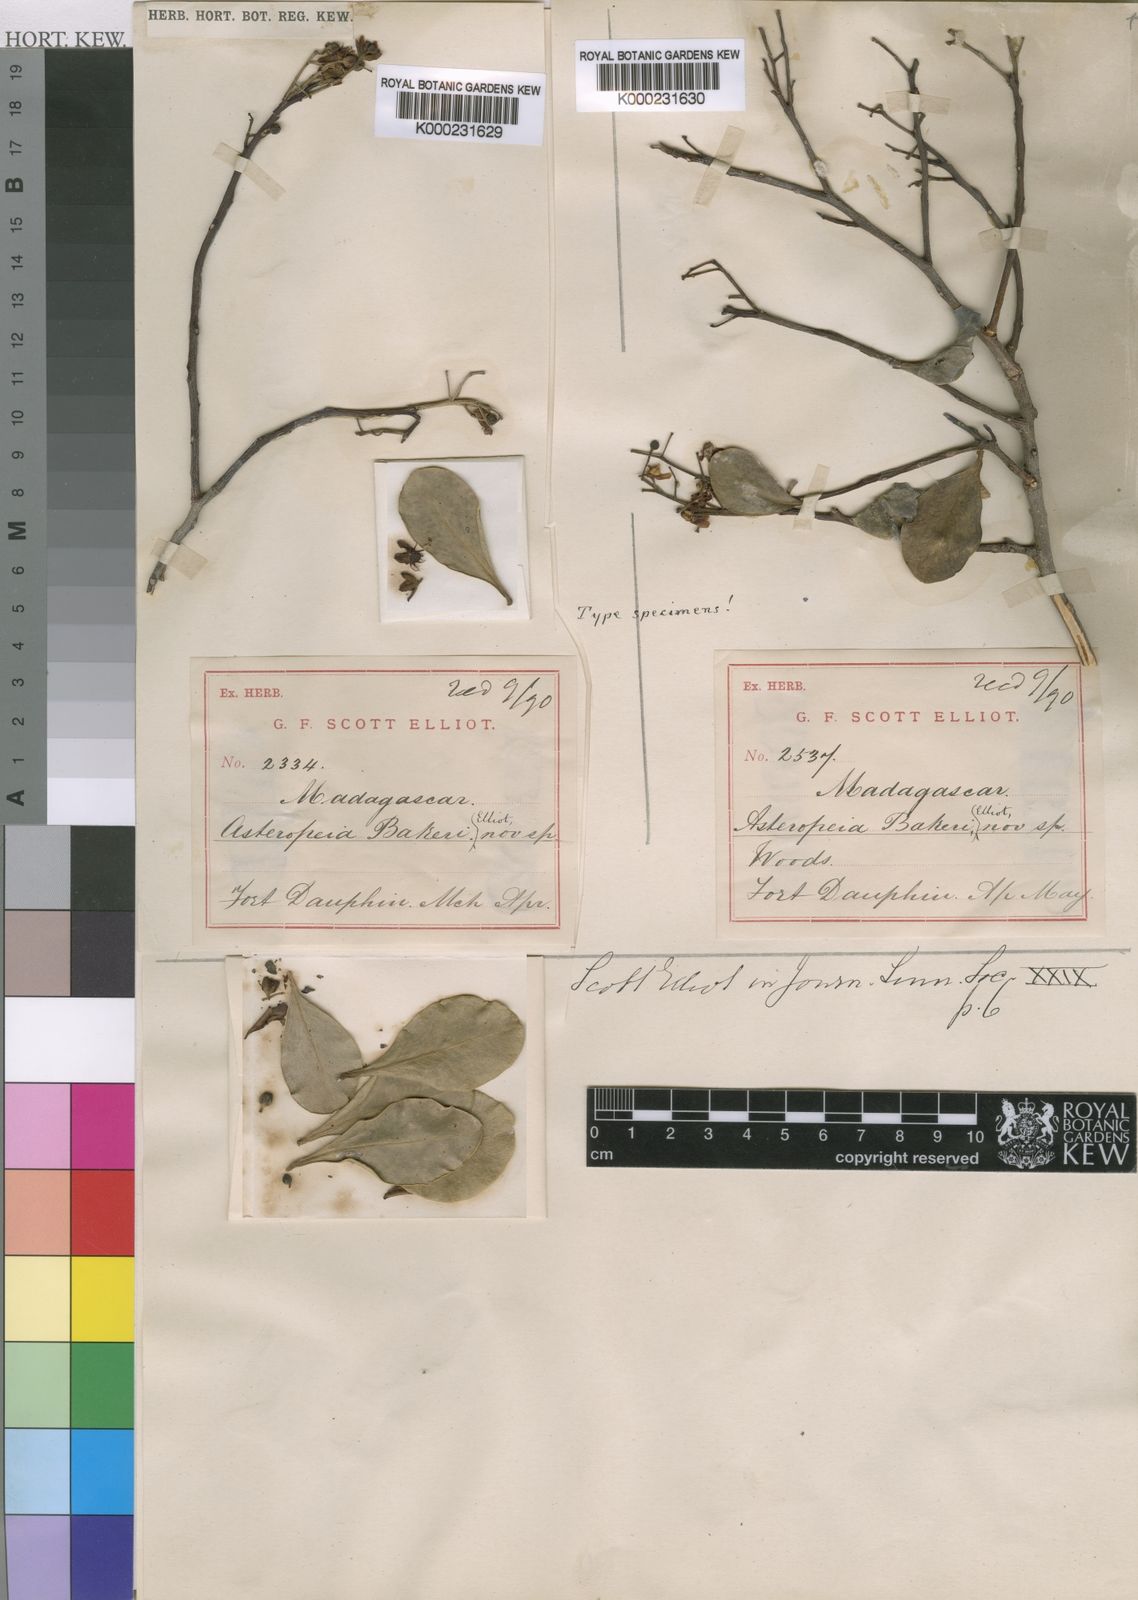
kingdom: Plantae
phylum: Tracheophyta
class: Magnoliopsida
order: Caryophyllales
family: Asteropeiaceae
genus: Asteropeia
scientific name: Asteropeia multiflora
